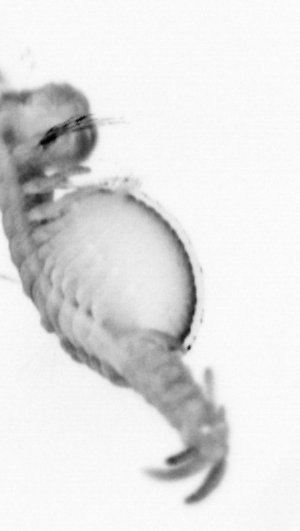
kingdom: Animalia
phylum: Annelida
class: Polychaeta
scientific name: Polychaeta
